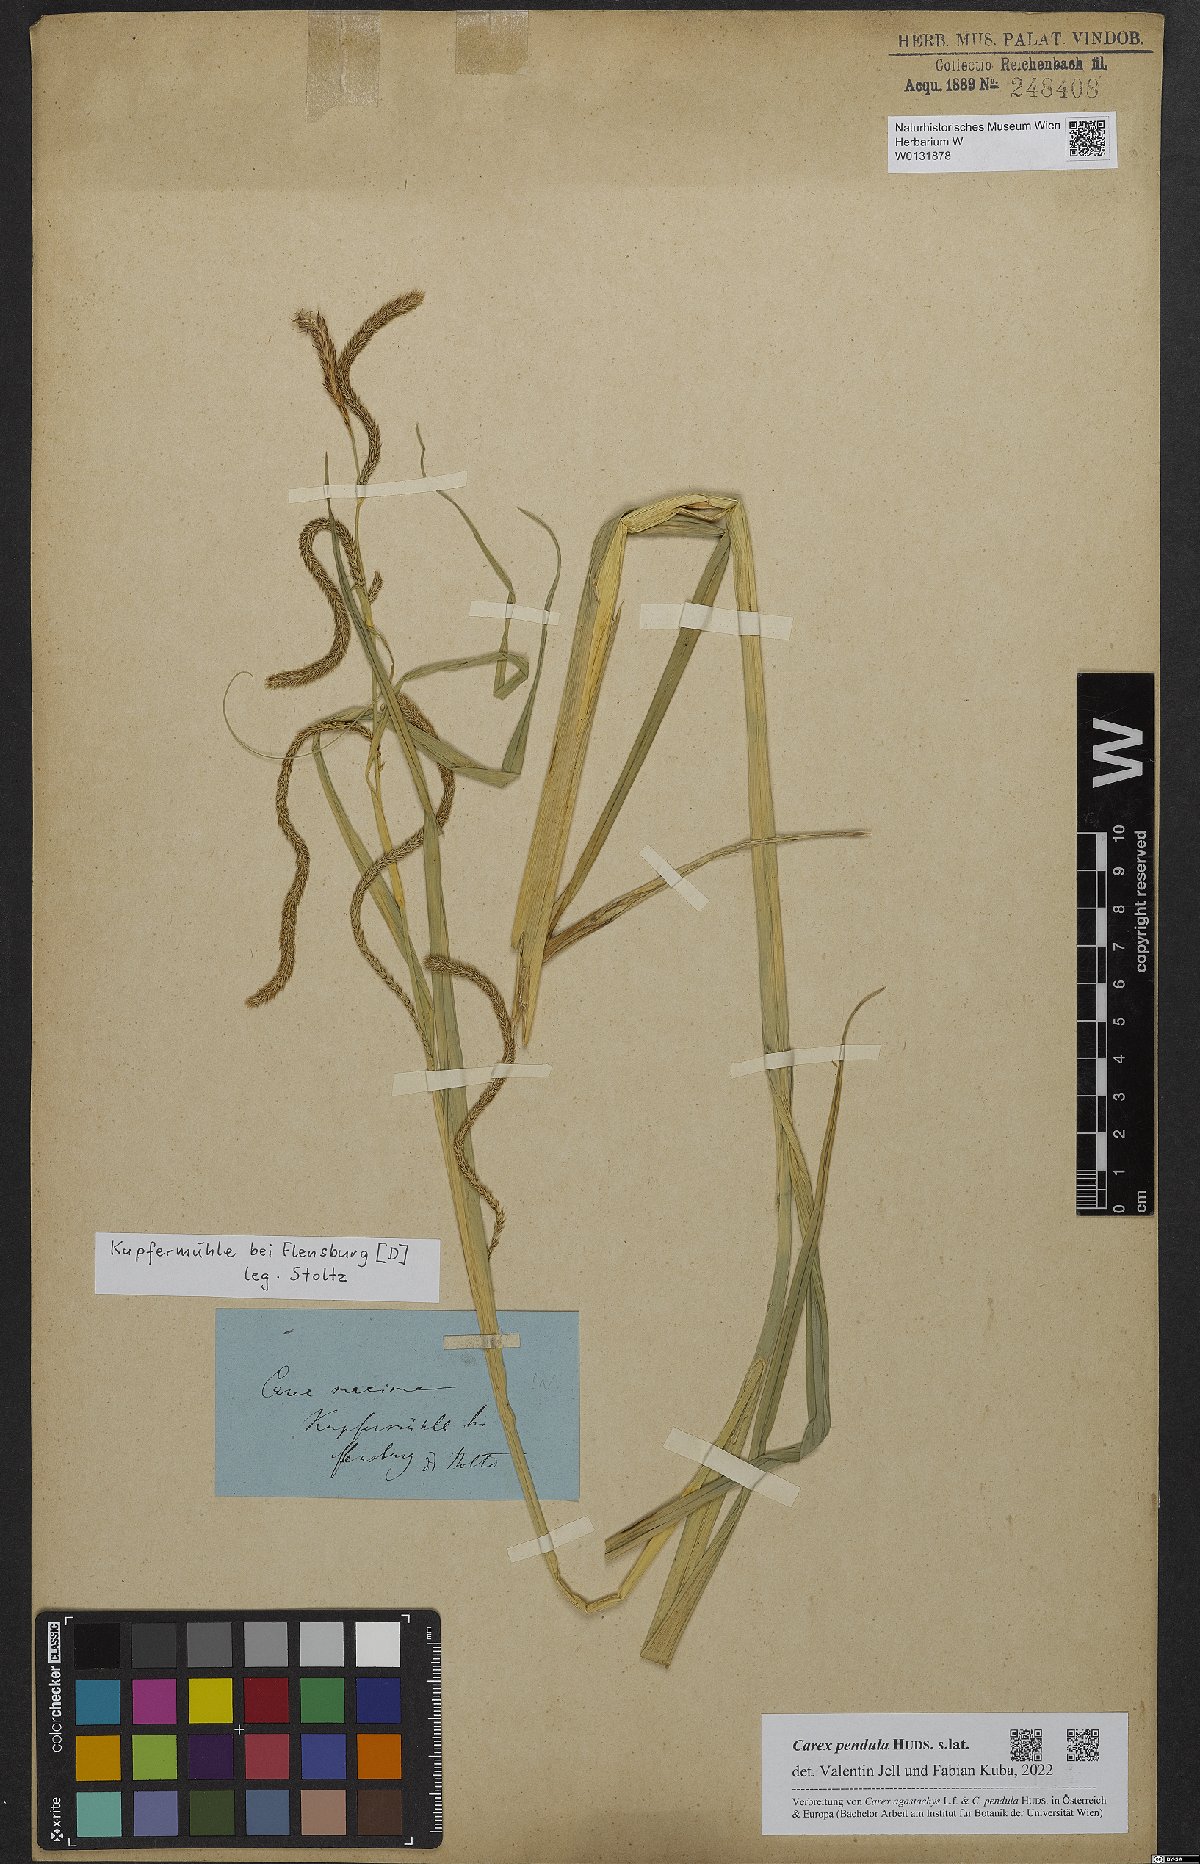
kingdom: Plantae
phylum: Tracheophyta
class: Liliopsida
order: Poales
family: Cyperaceae
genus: Carex
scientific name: Carex pendula
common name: Pendulous sedge
